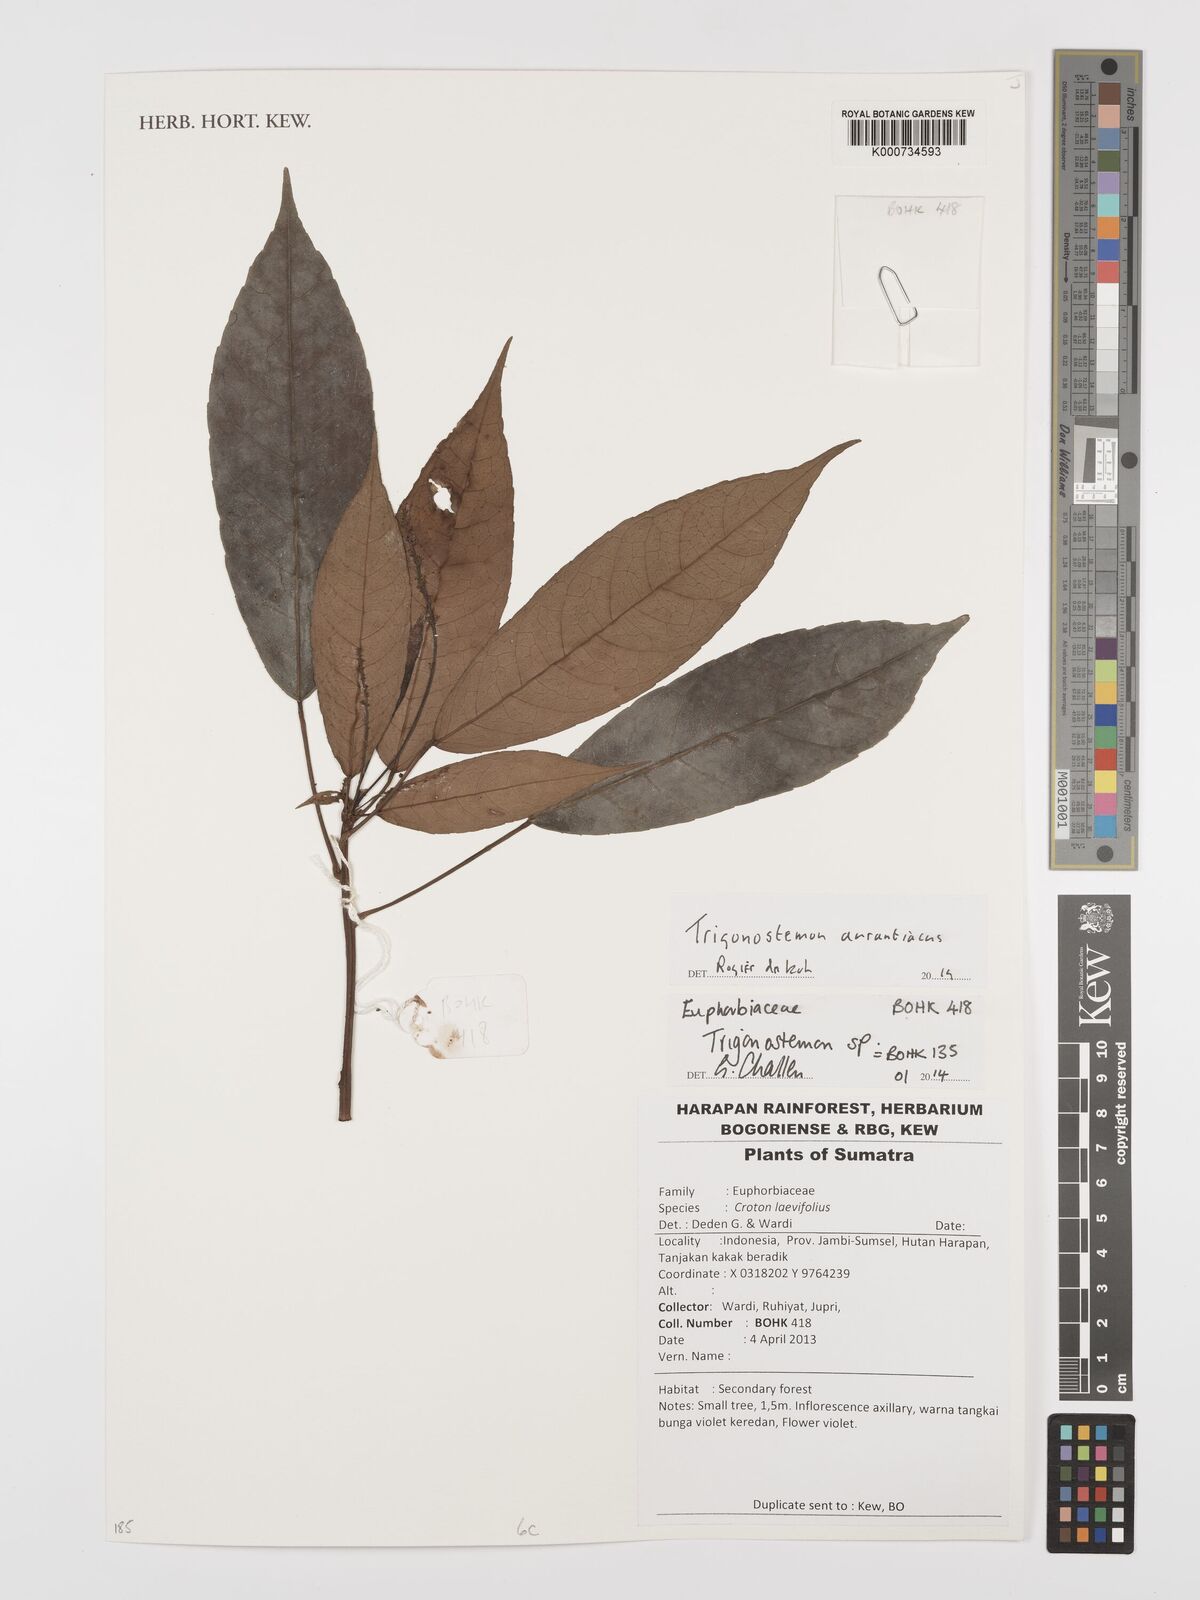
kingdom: Plantae
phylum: Tracheophyta
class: Magnoliopsida
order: Malpighiales
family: Euphorbiaceae
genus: Trigonostemon
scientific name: Trigonostemon
